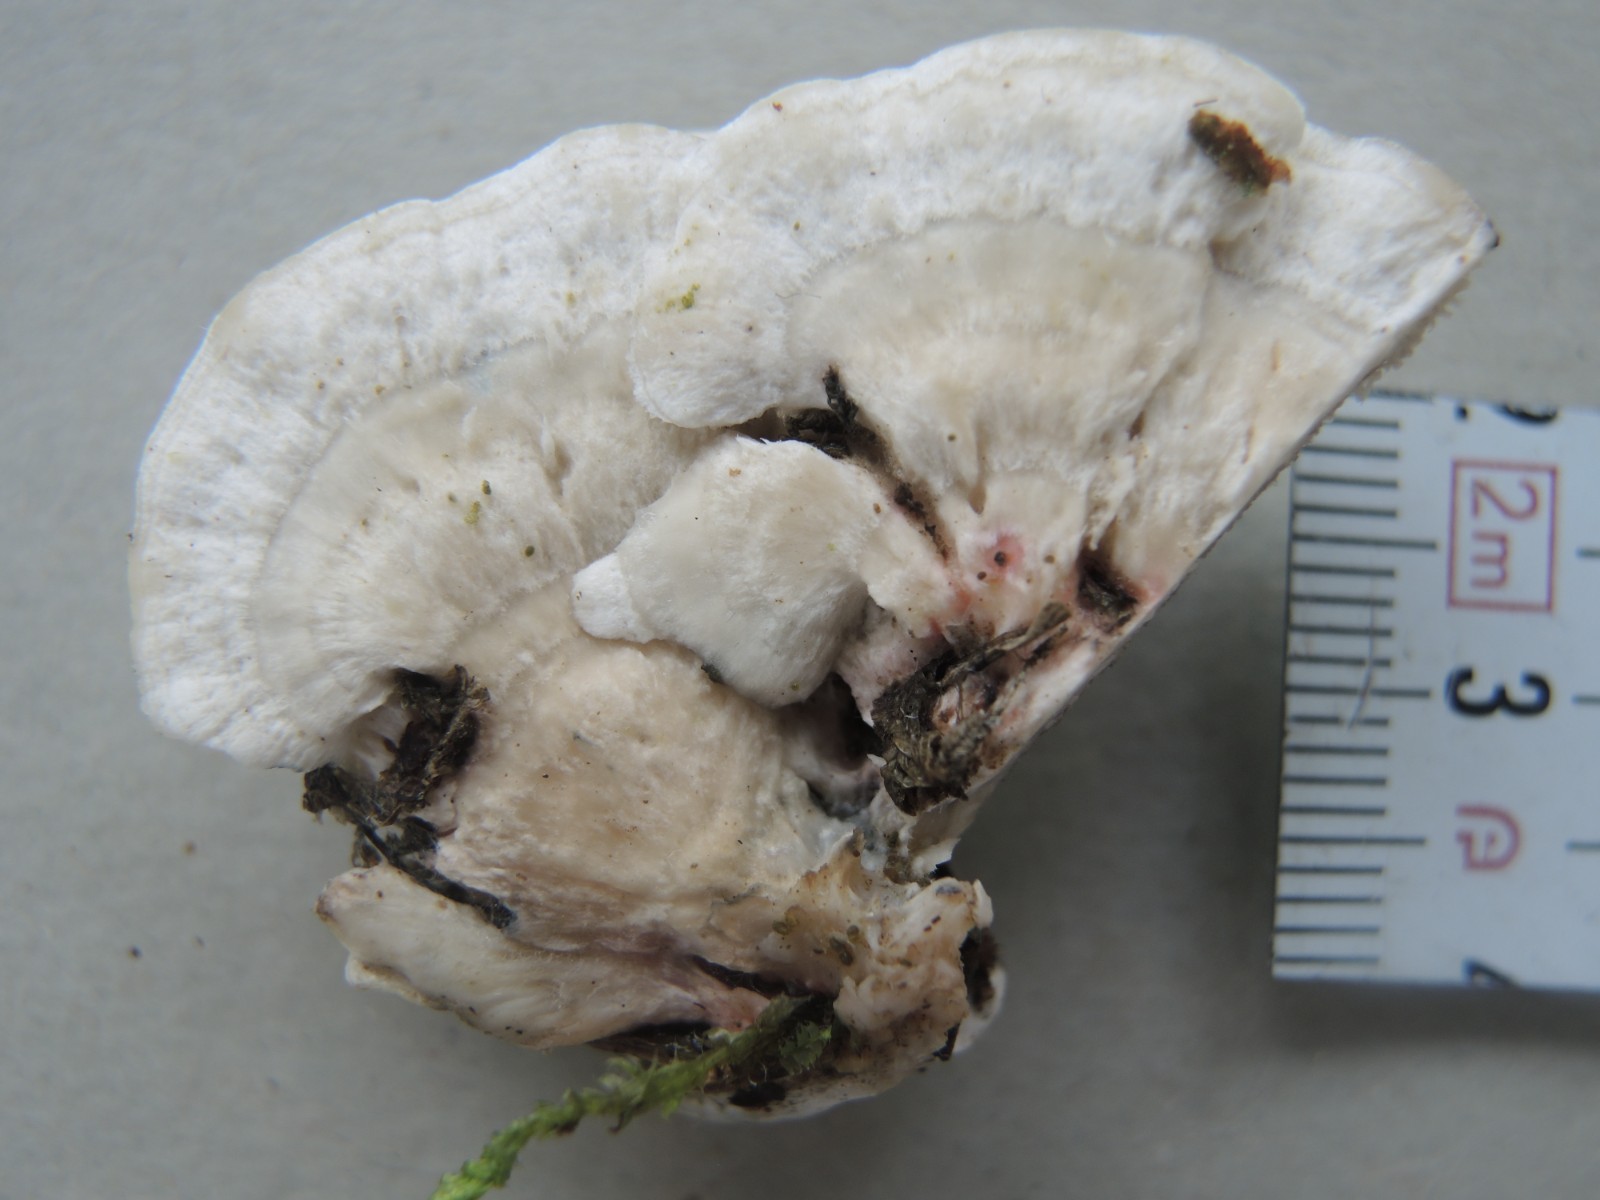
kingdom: Fungi
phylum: Basidiomycota
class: Agaricomycetes
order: Polyporales
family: Polyporaceae
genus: Cyanosporus
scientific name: Cyanosporus cyanescens
